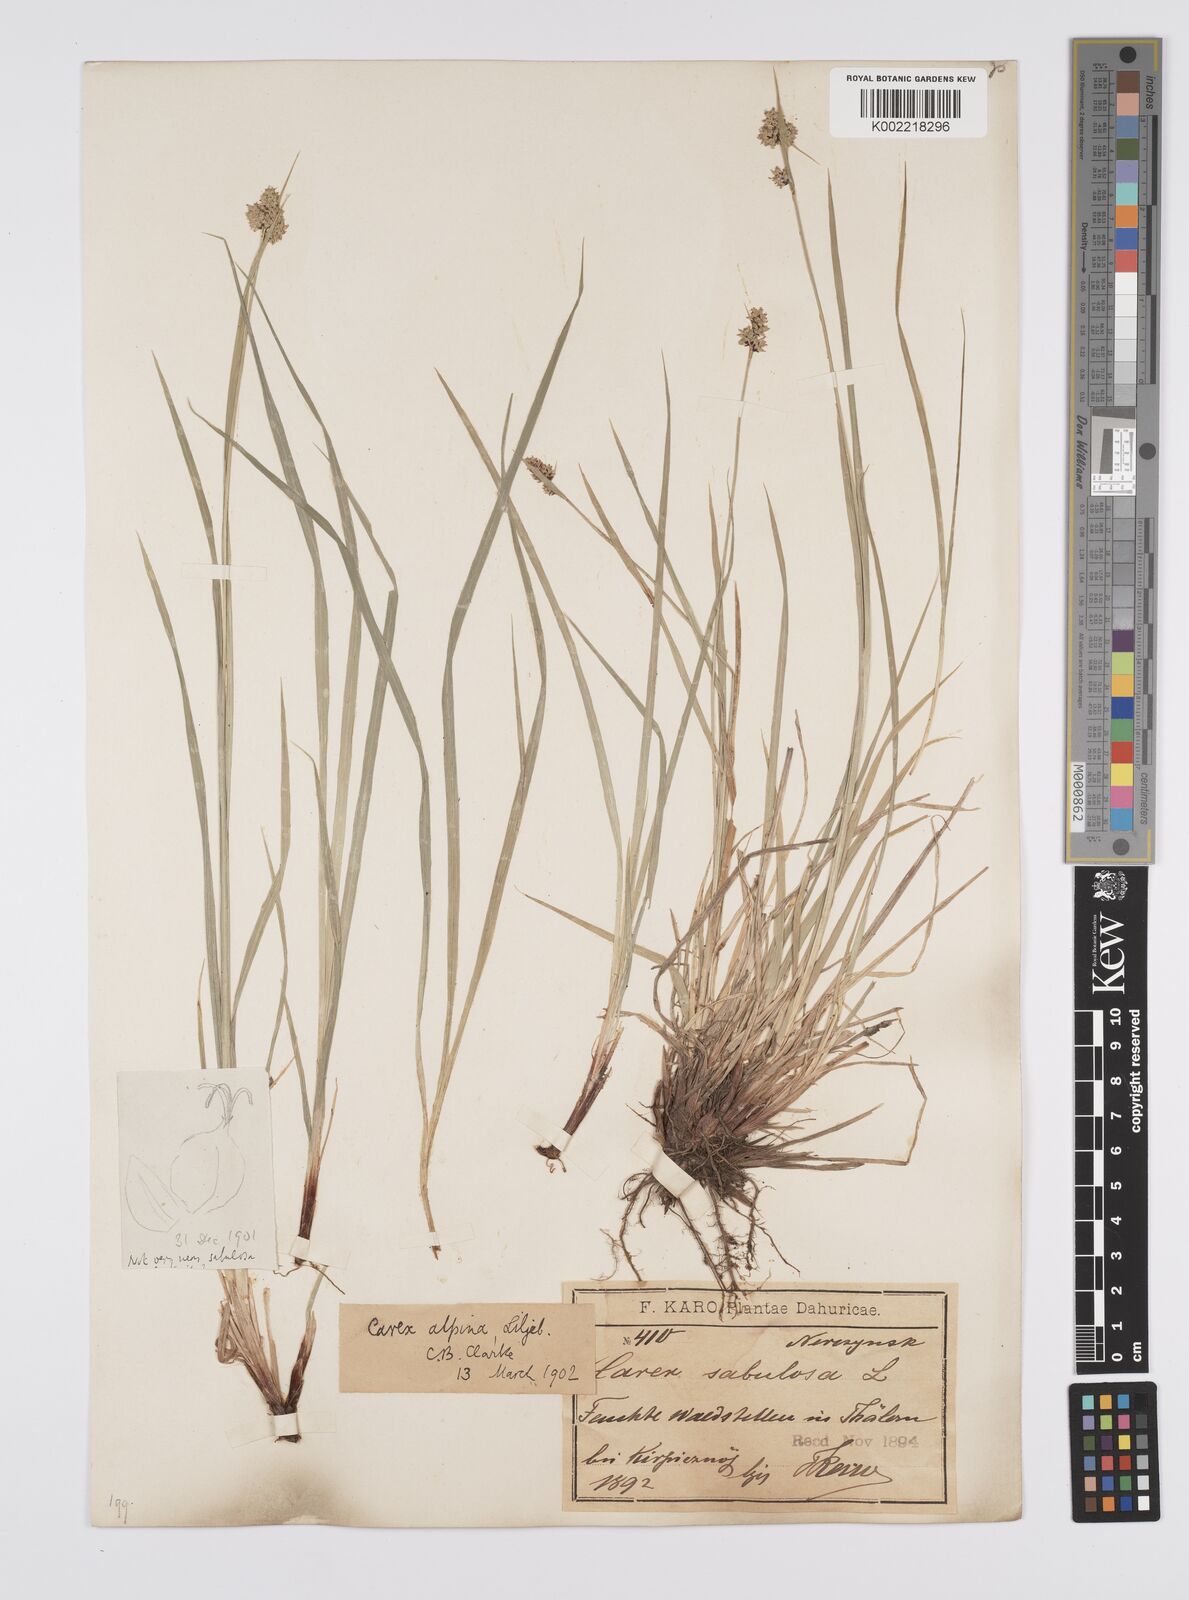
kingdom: Plantae
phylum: Tracheophyta
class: Liliopsida
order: Poales
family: Cyperaceae
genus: Carex
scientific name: Carex nigra
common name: Common sedge
